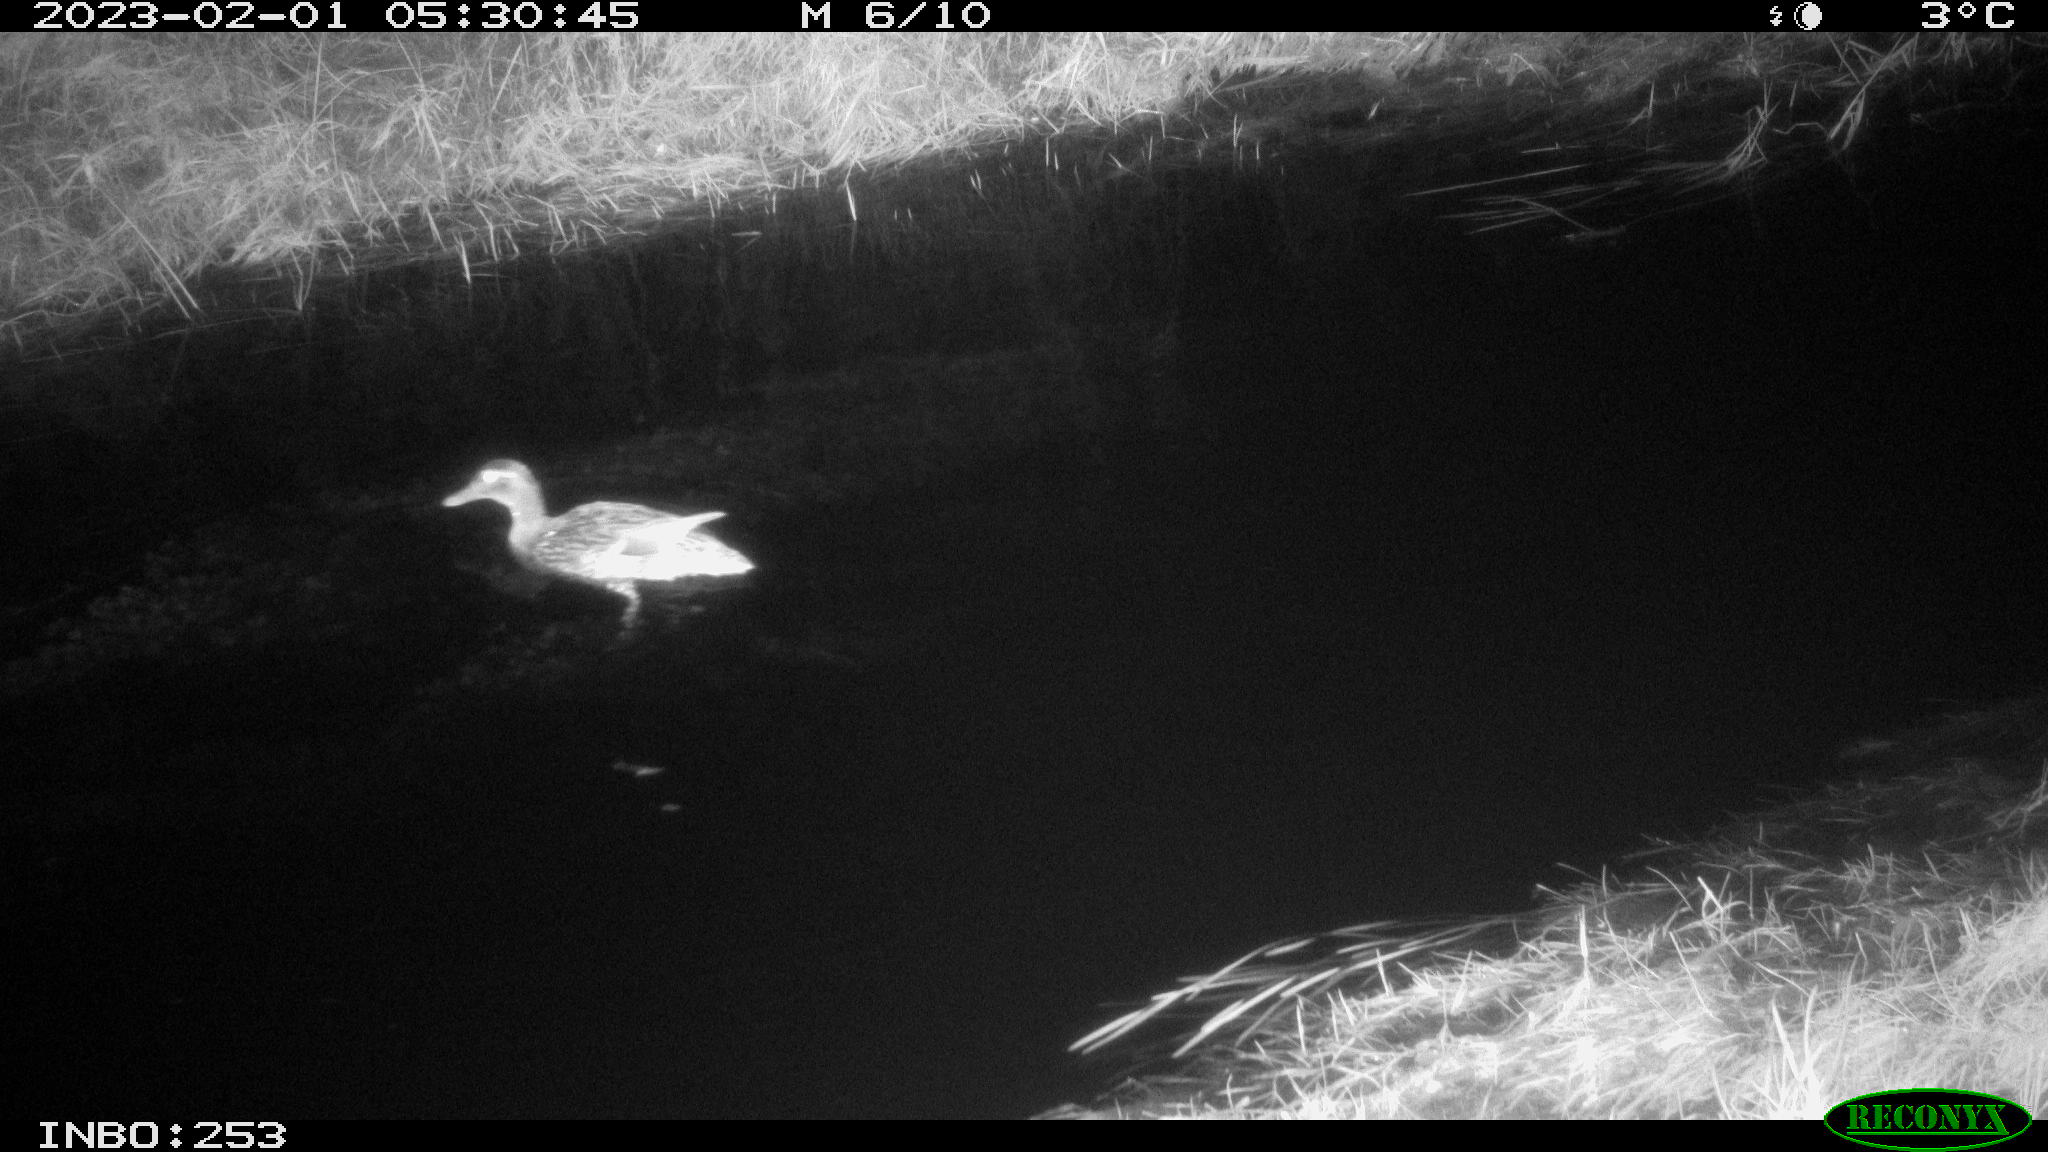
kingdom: Animalia
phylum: Chordata
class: Aves
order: Anseriformes
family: Anatidae
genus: Anas
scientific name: Anas
